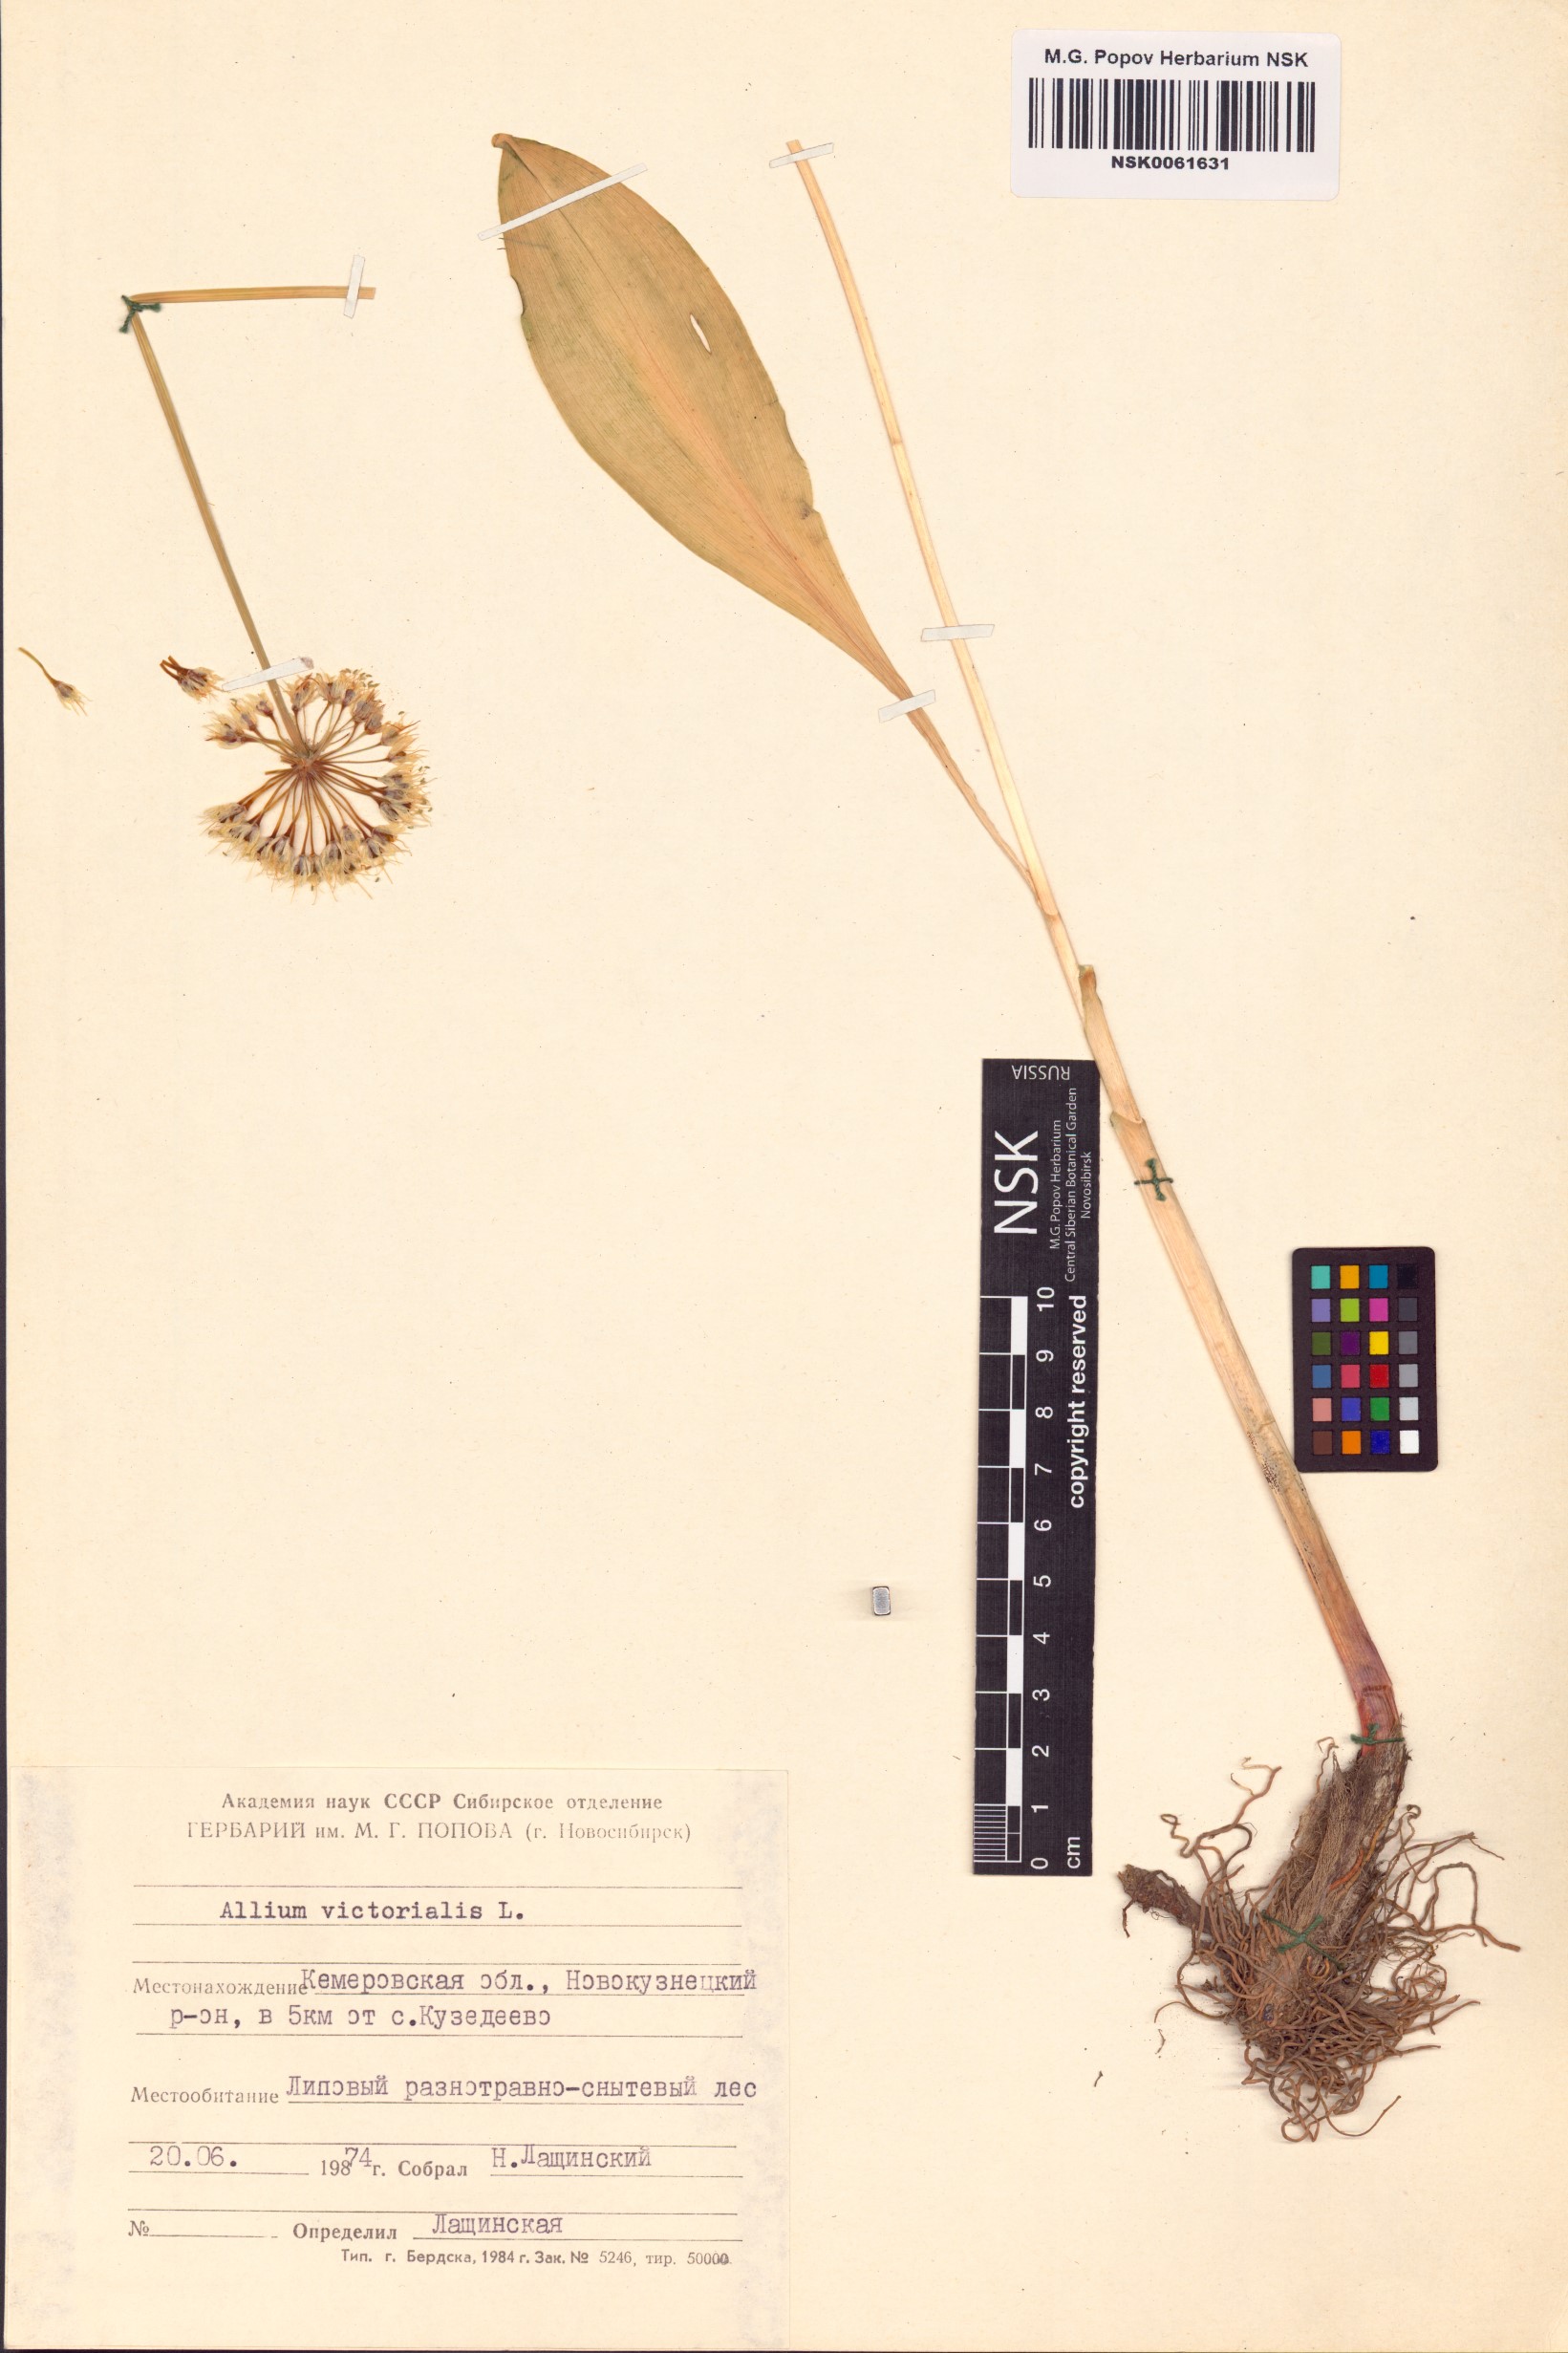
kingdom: Plantae
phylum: Tracheophyta
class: Liliopsida
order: Asparagales
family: Amaryllidaceae
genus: Allium
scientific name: Allium victorialis
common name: Alpine leek
